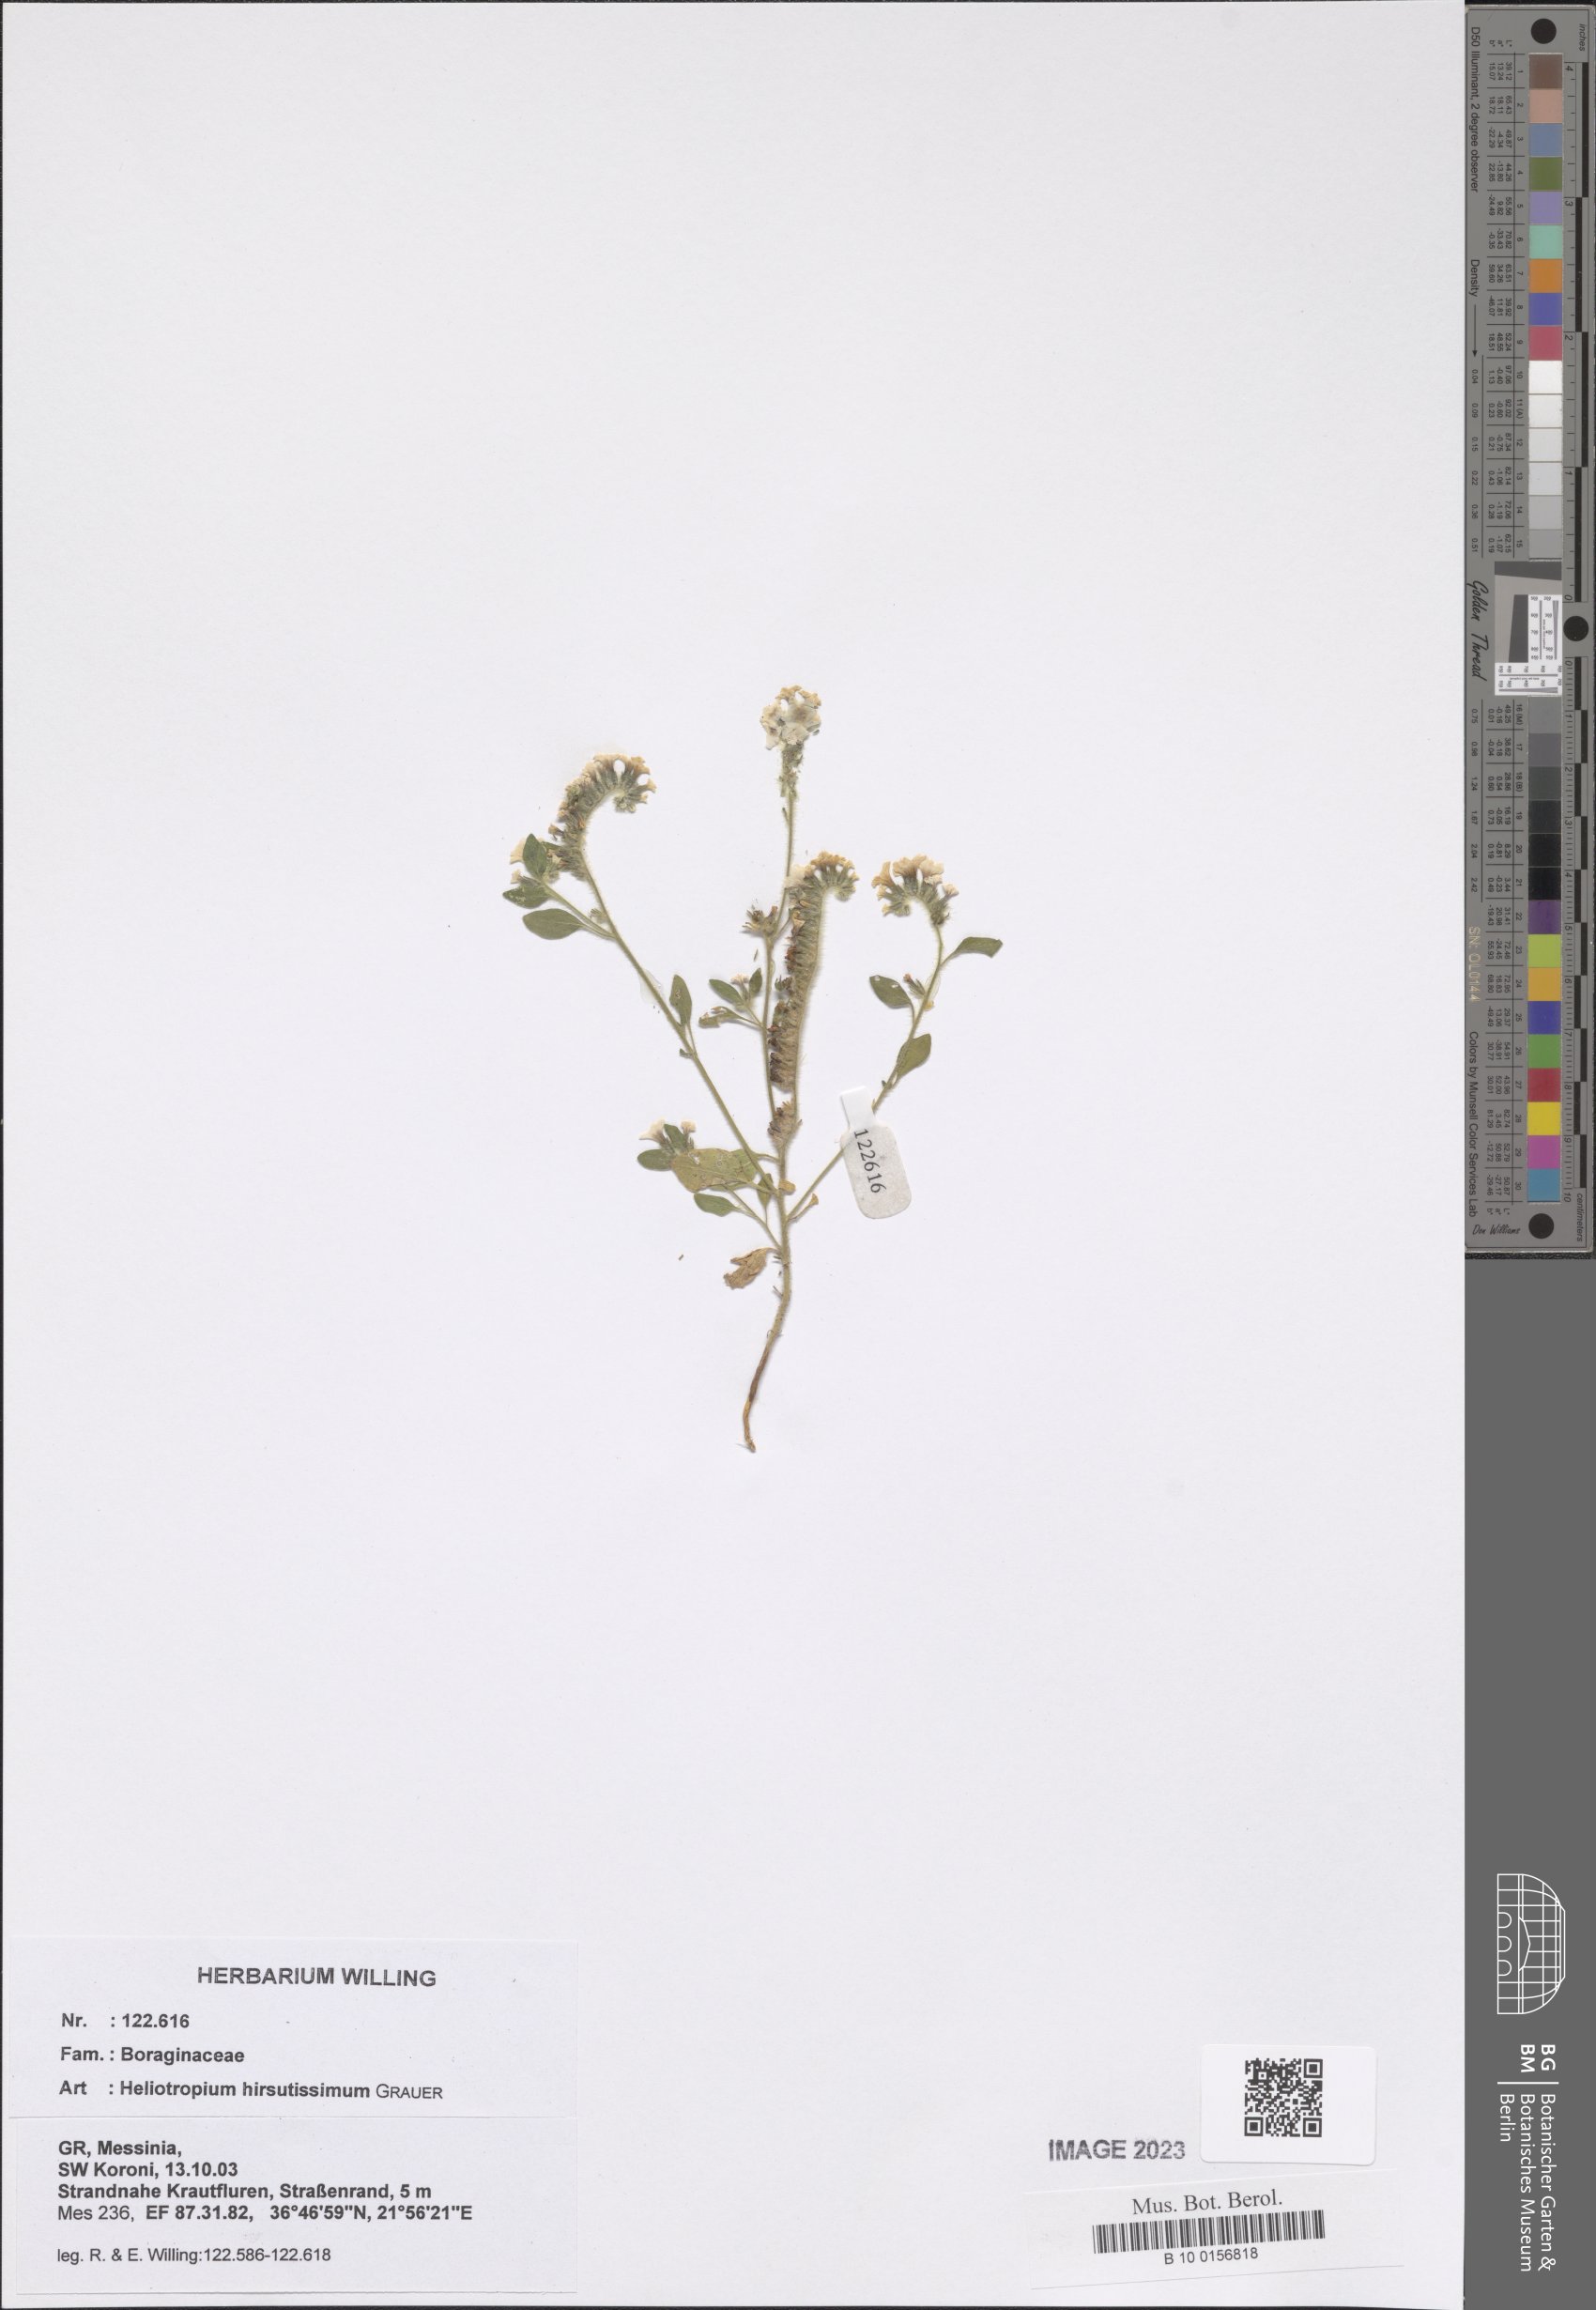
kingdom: Plantae
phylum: Tracheophyta
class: Magnoliopsida
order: Boraginales
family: Heliotropiaceae
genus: Heliotropium
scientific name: Heliotropium hirsutissimum
